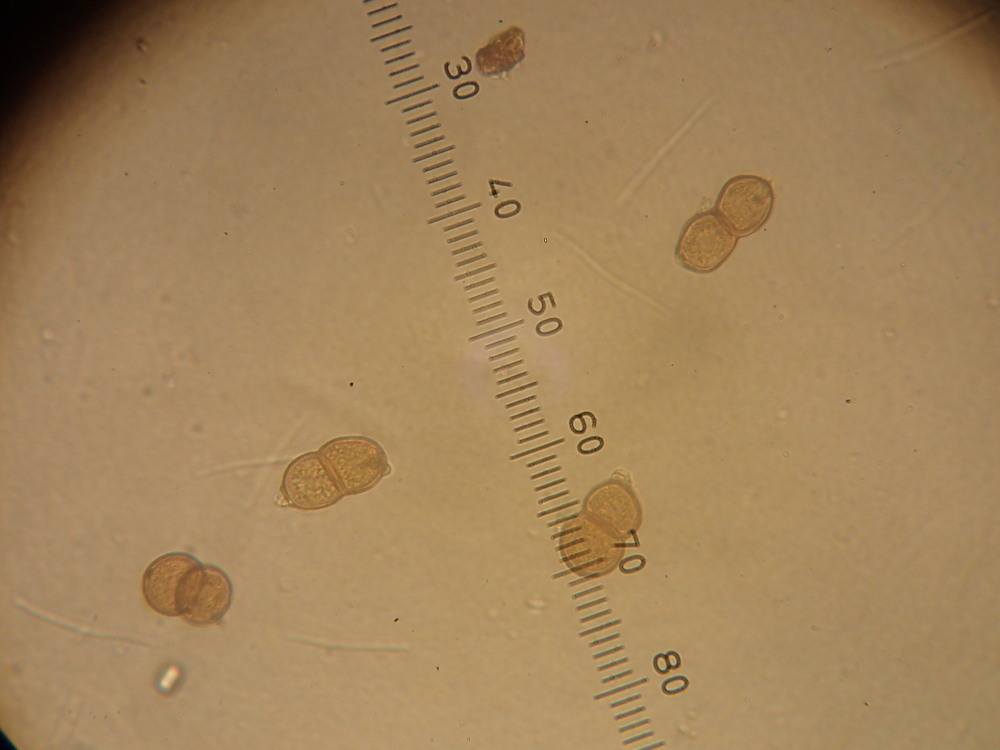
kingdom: Fungi
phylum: Basidiomycota
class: Pucciniomycetes
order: Pucciniales
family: Pucciniaceae
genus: Puccinia
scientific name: Puccinia pulverulenta
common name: dueurt-tvecellerust
